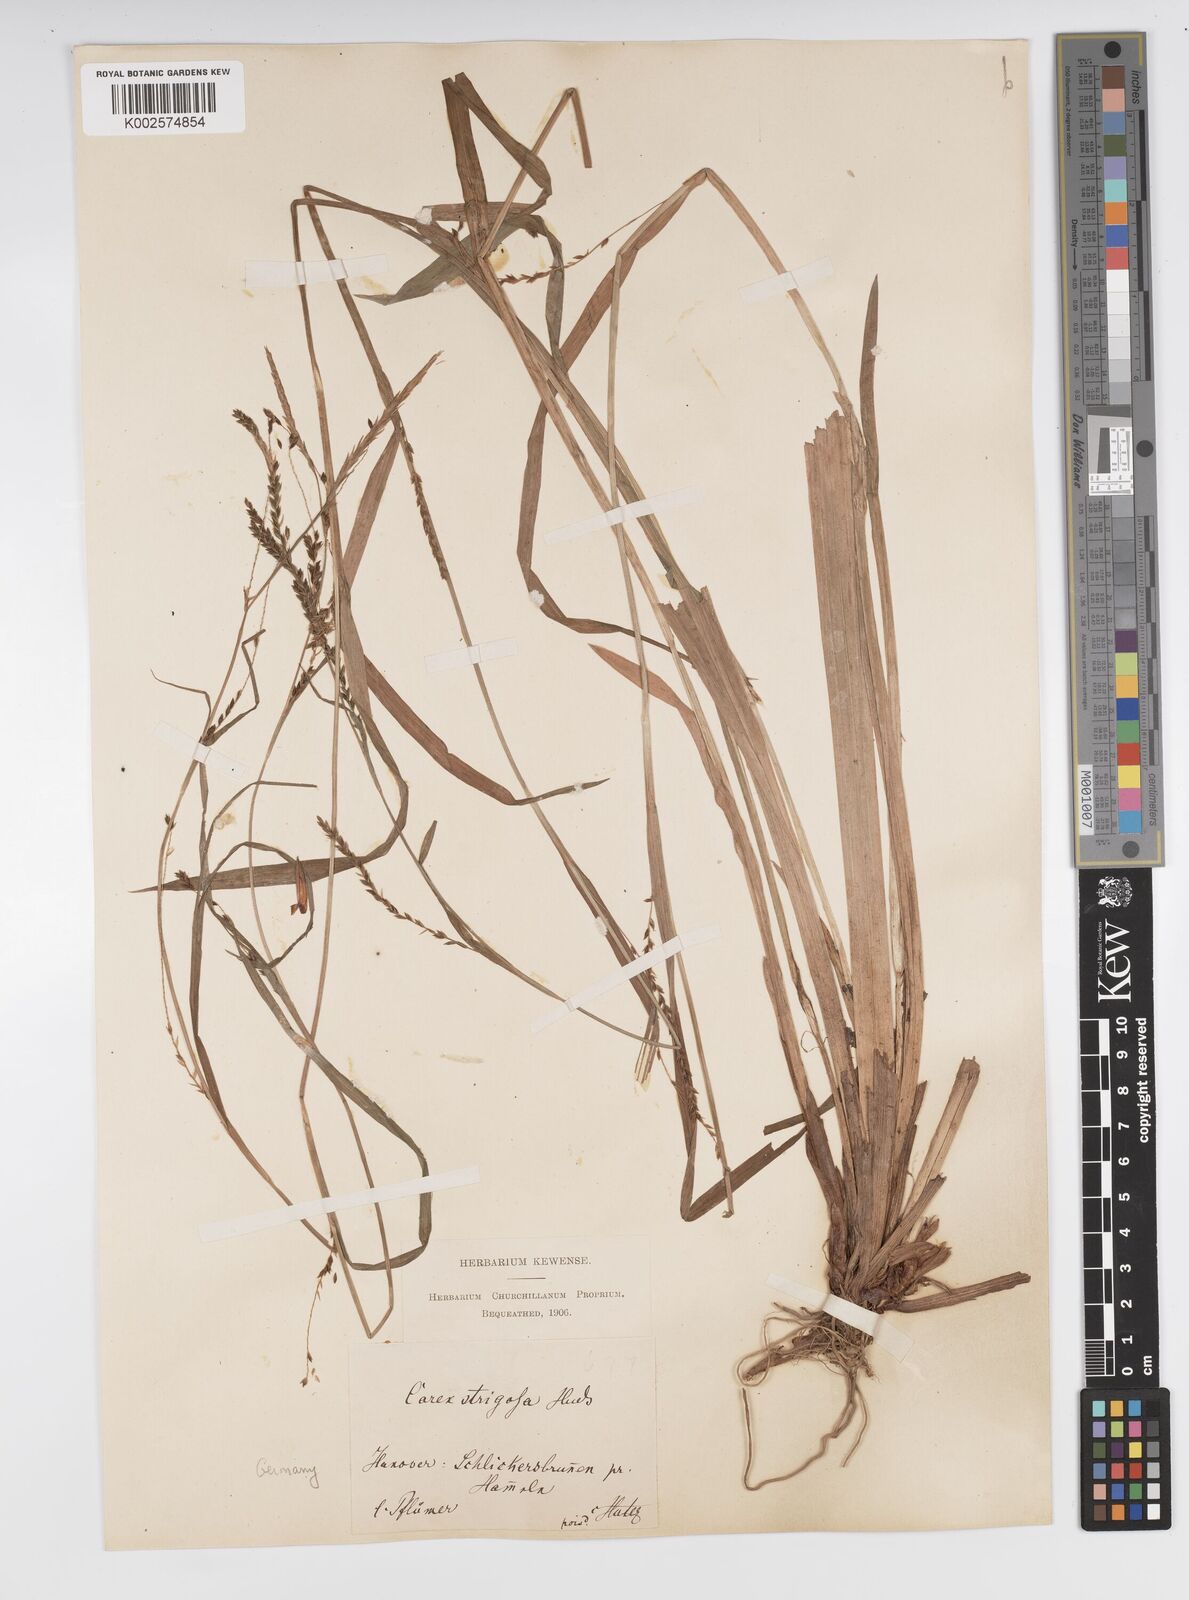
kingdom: Plantae
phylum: Tracheophyta
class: Liliopsida
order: Poales
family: Cyperaceae
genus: Carex
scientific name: Carex strigosa
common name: Thin-spiked wood-sedge
